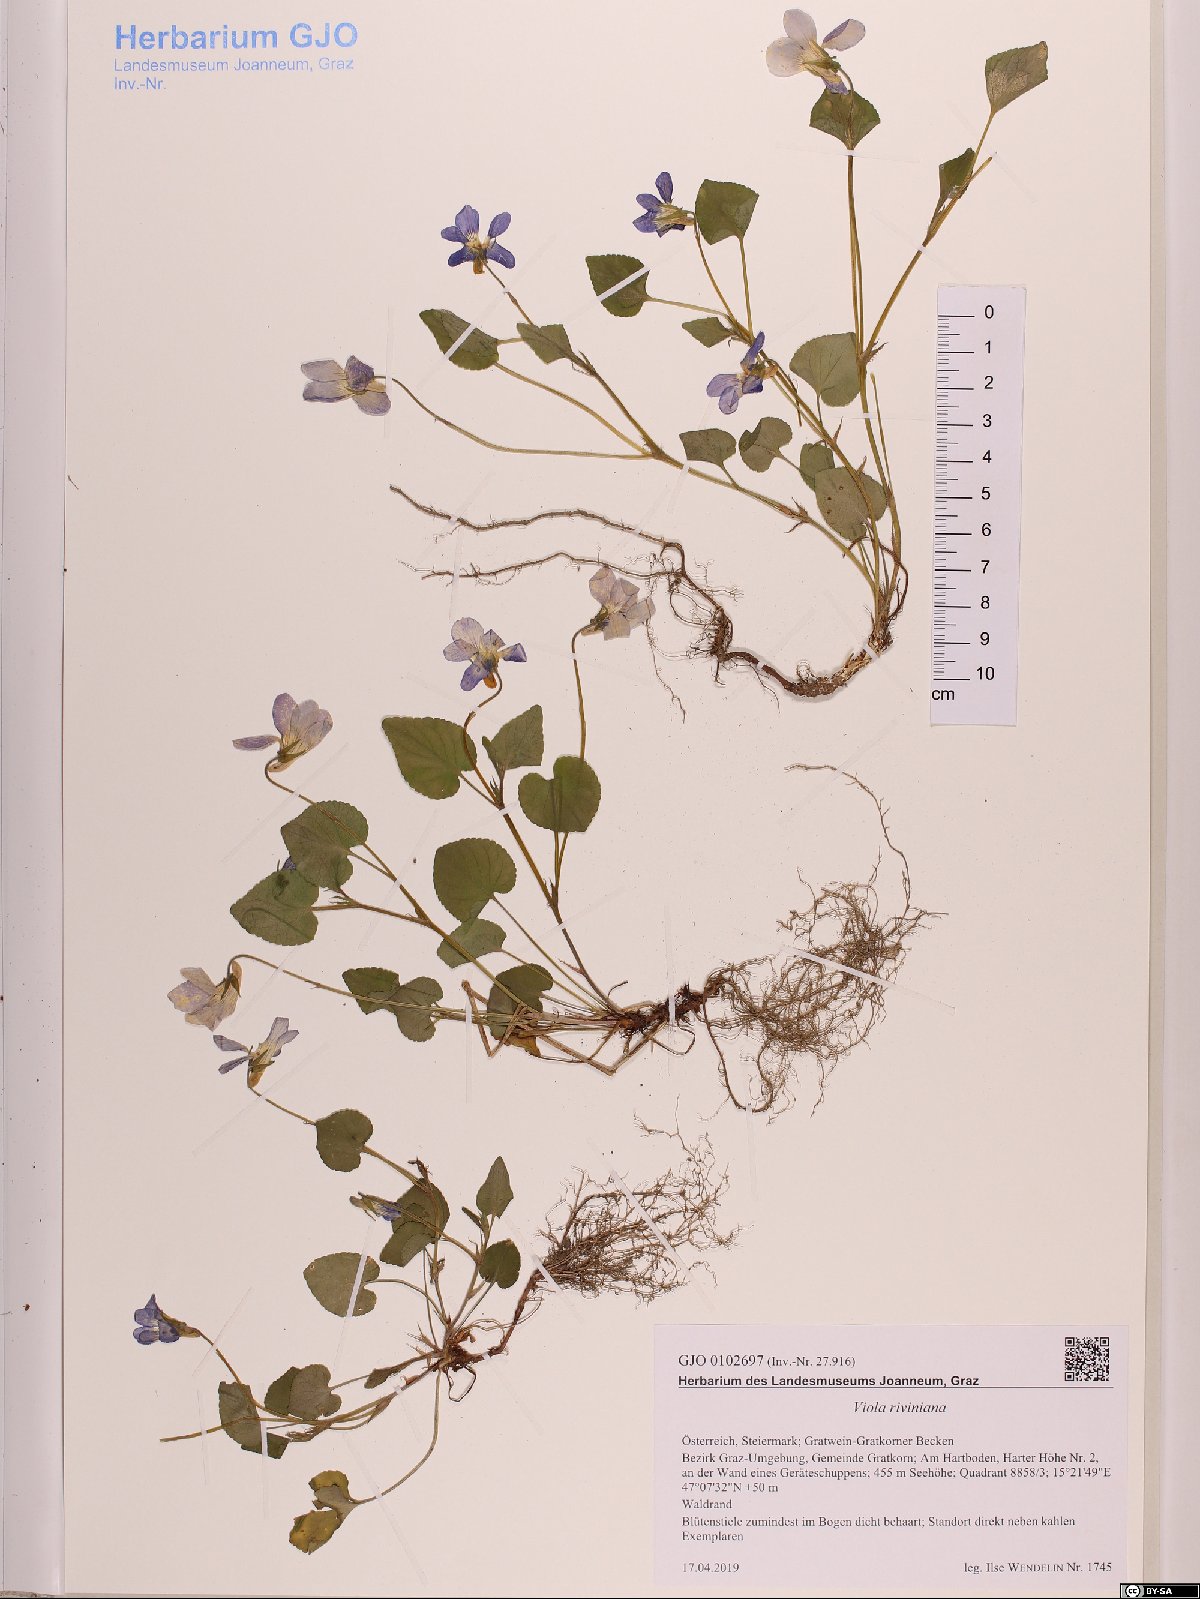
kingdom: Plantae
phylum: Tracheophyta
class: Magnoliopsida
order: Malpighiales
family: Violaceae
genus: Viola
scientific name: Viola riviniana
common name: Common dog-violet
